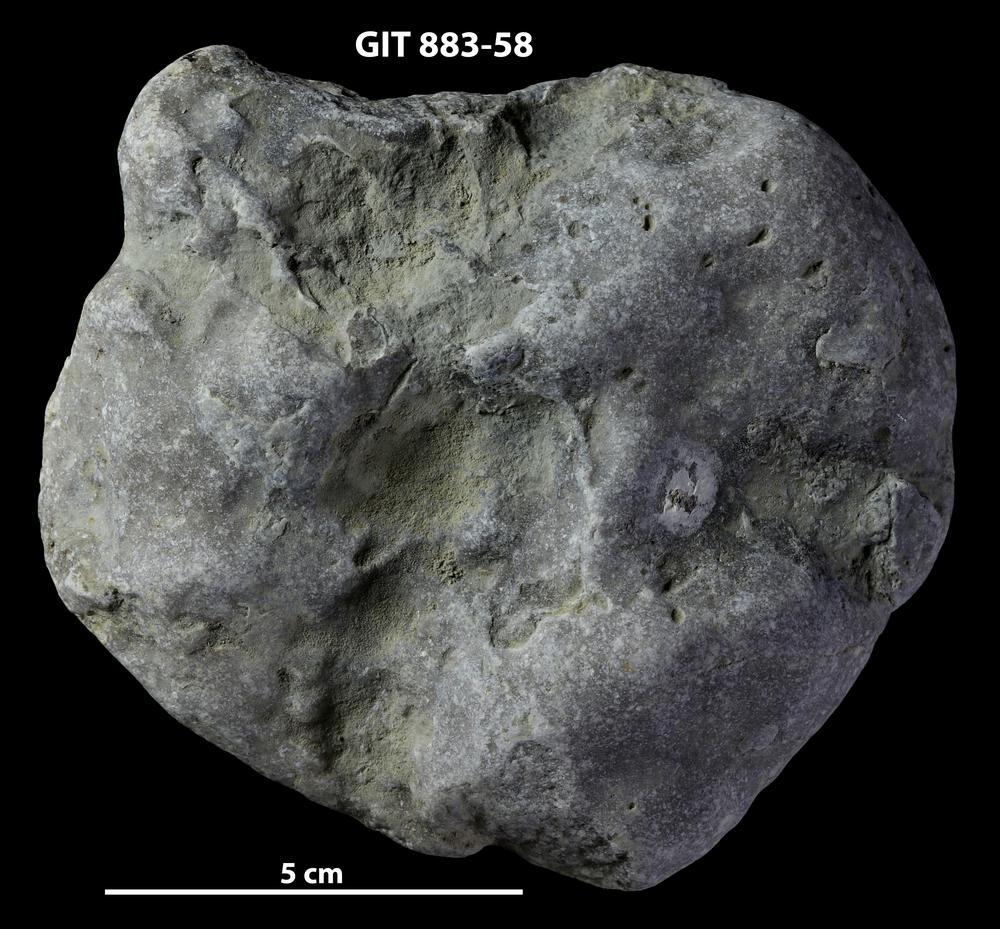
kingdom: Animalia
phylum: Porifera
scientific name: Porifera
